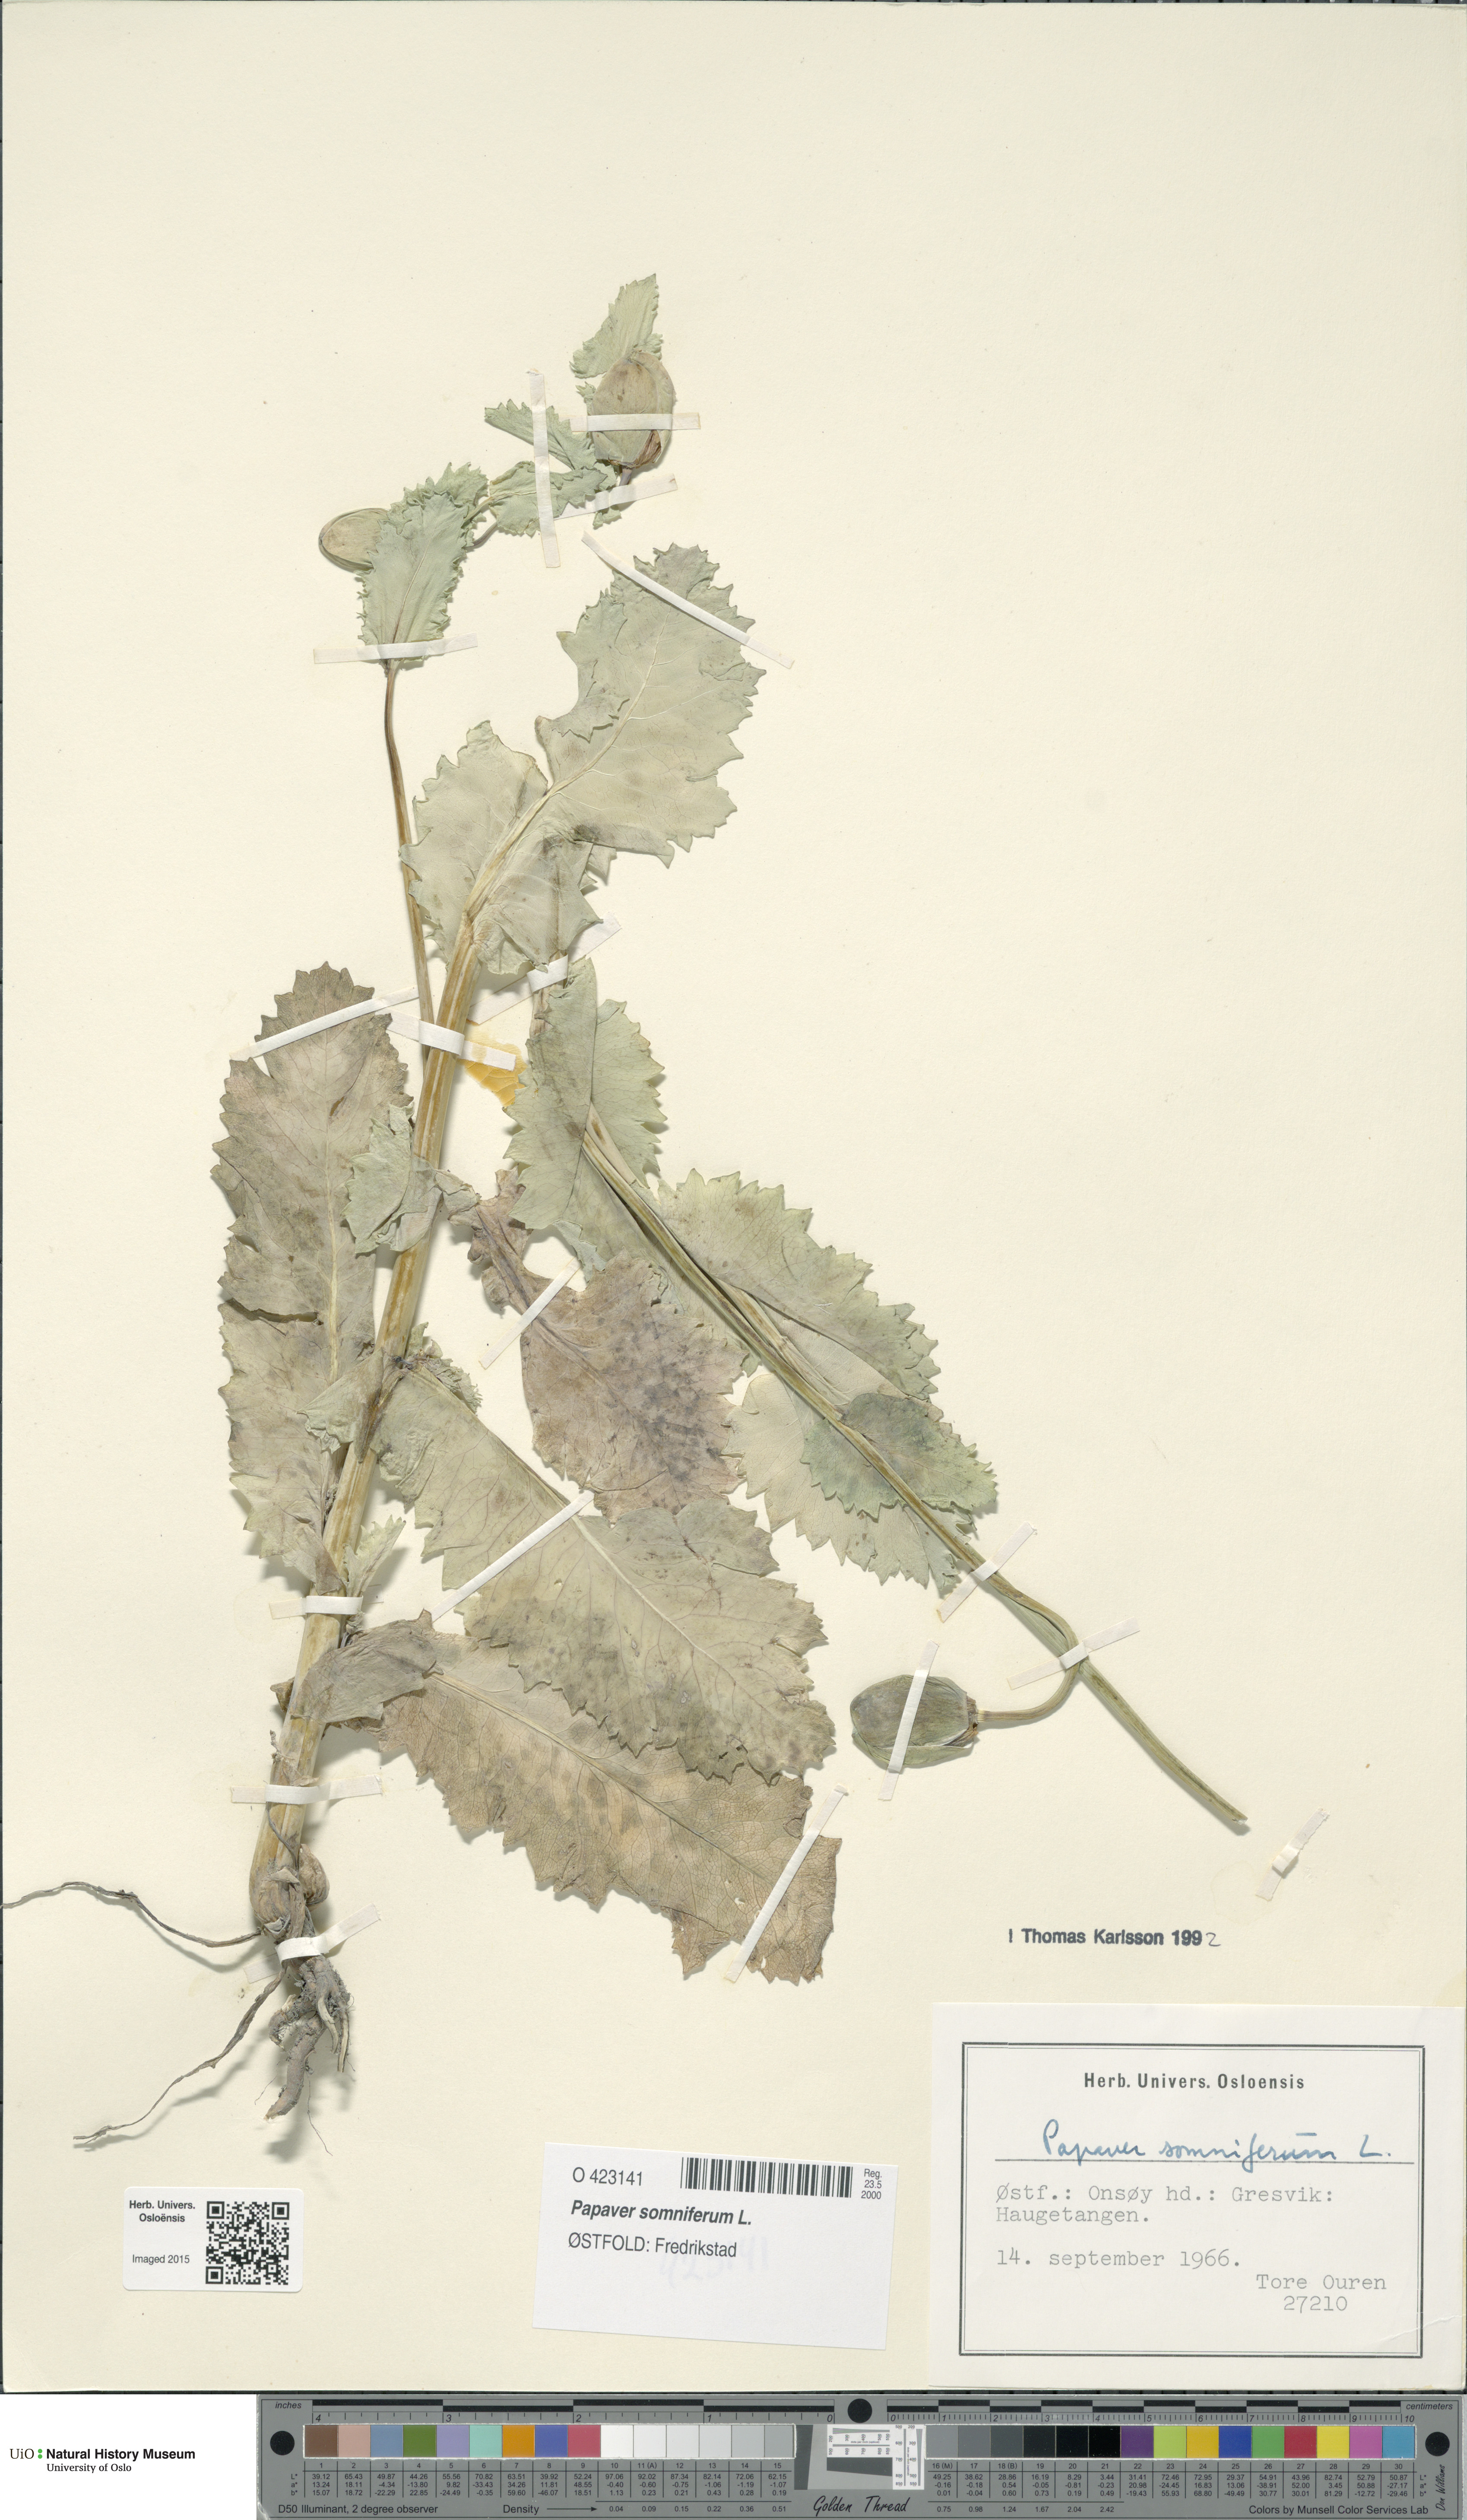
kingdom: Plantae
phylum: Tracheophyta
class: Magnoliopsida
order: Ranunculales
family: Papaveraceae
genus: Papaver
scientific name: Papaver somniferum
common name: Opium poppy
